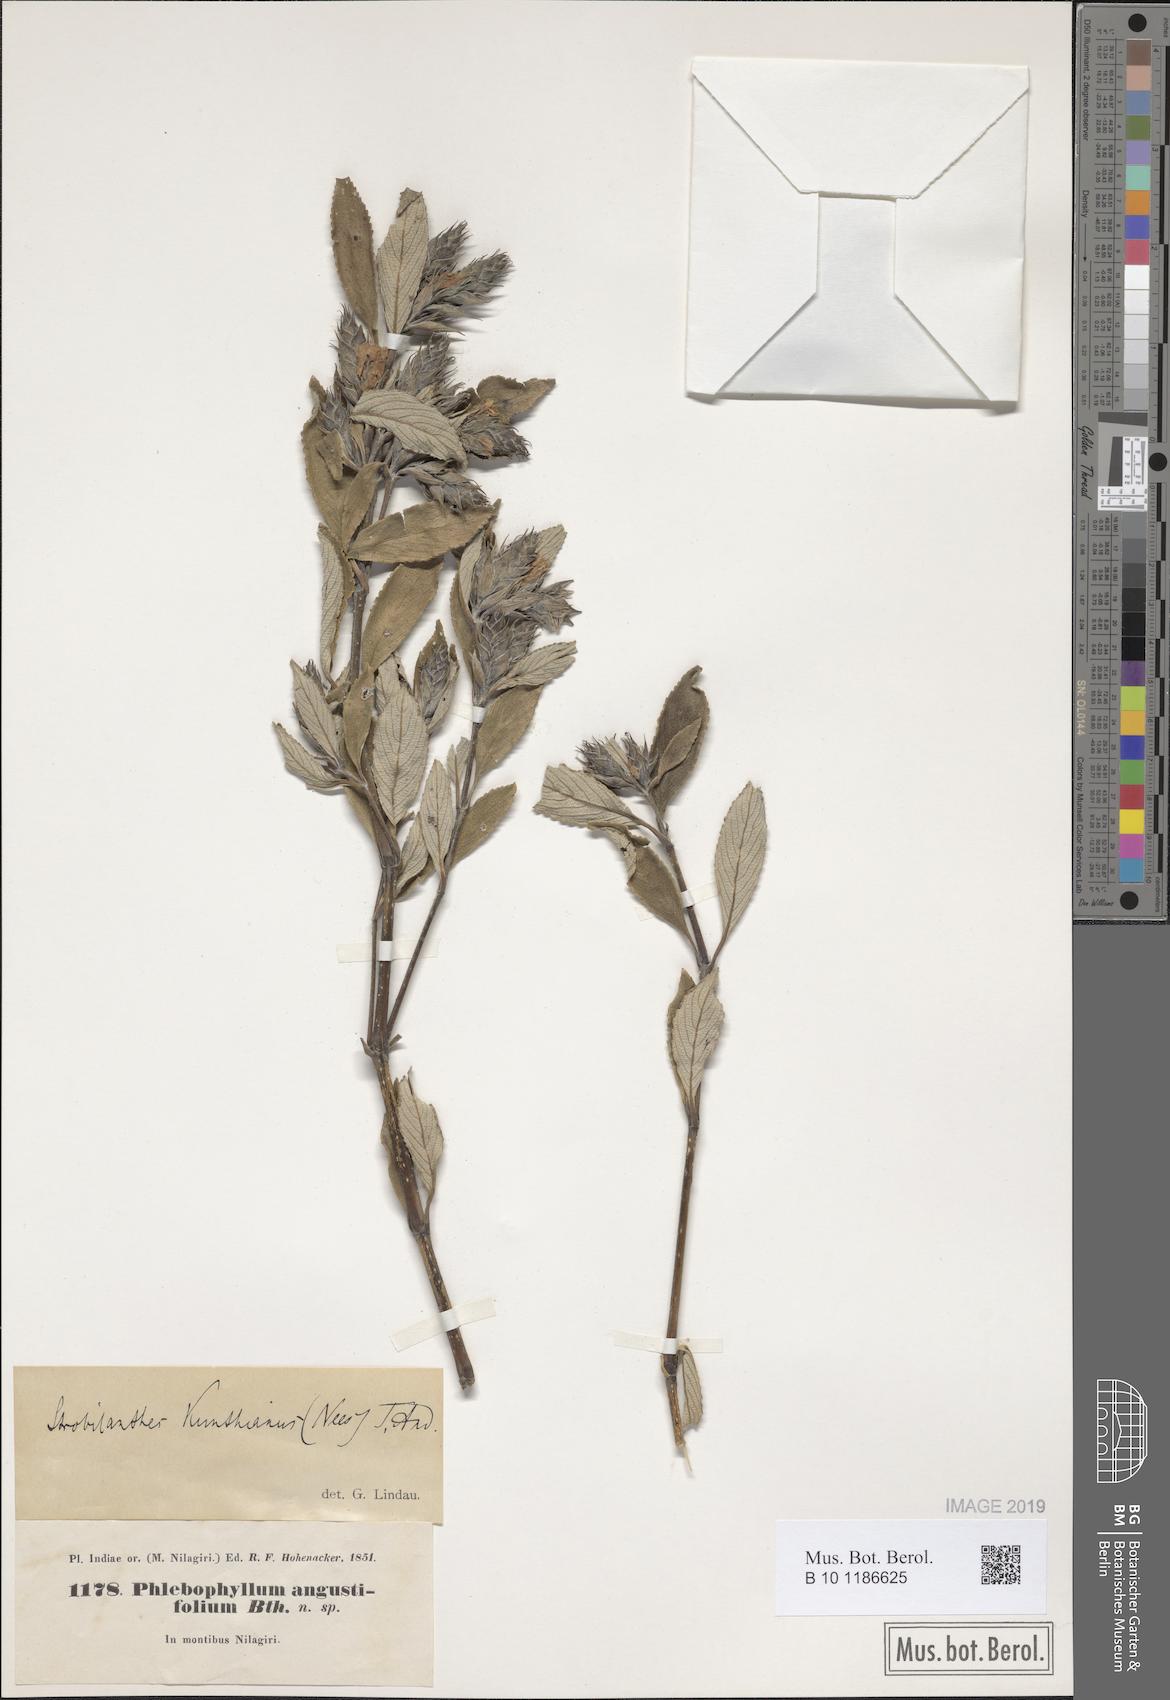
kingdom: Plantae
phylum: Tracheophyta
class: Magnoliopsida
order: Lamiales
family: Acanthaceae
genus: Strobilanthes
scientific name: Strobilanthes kunthiana
